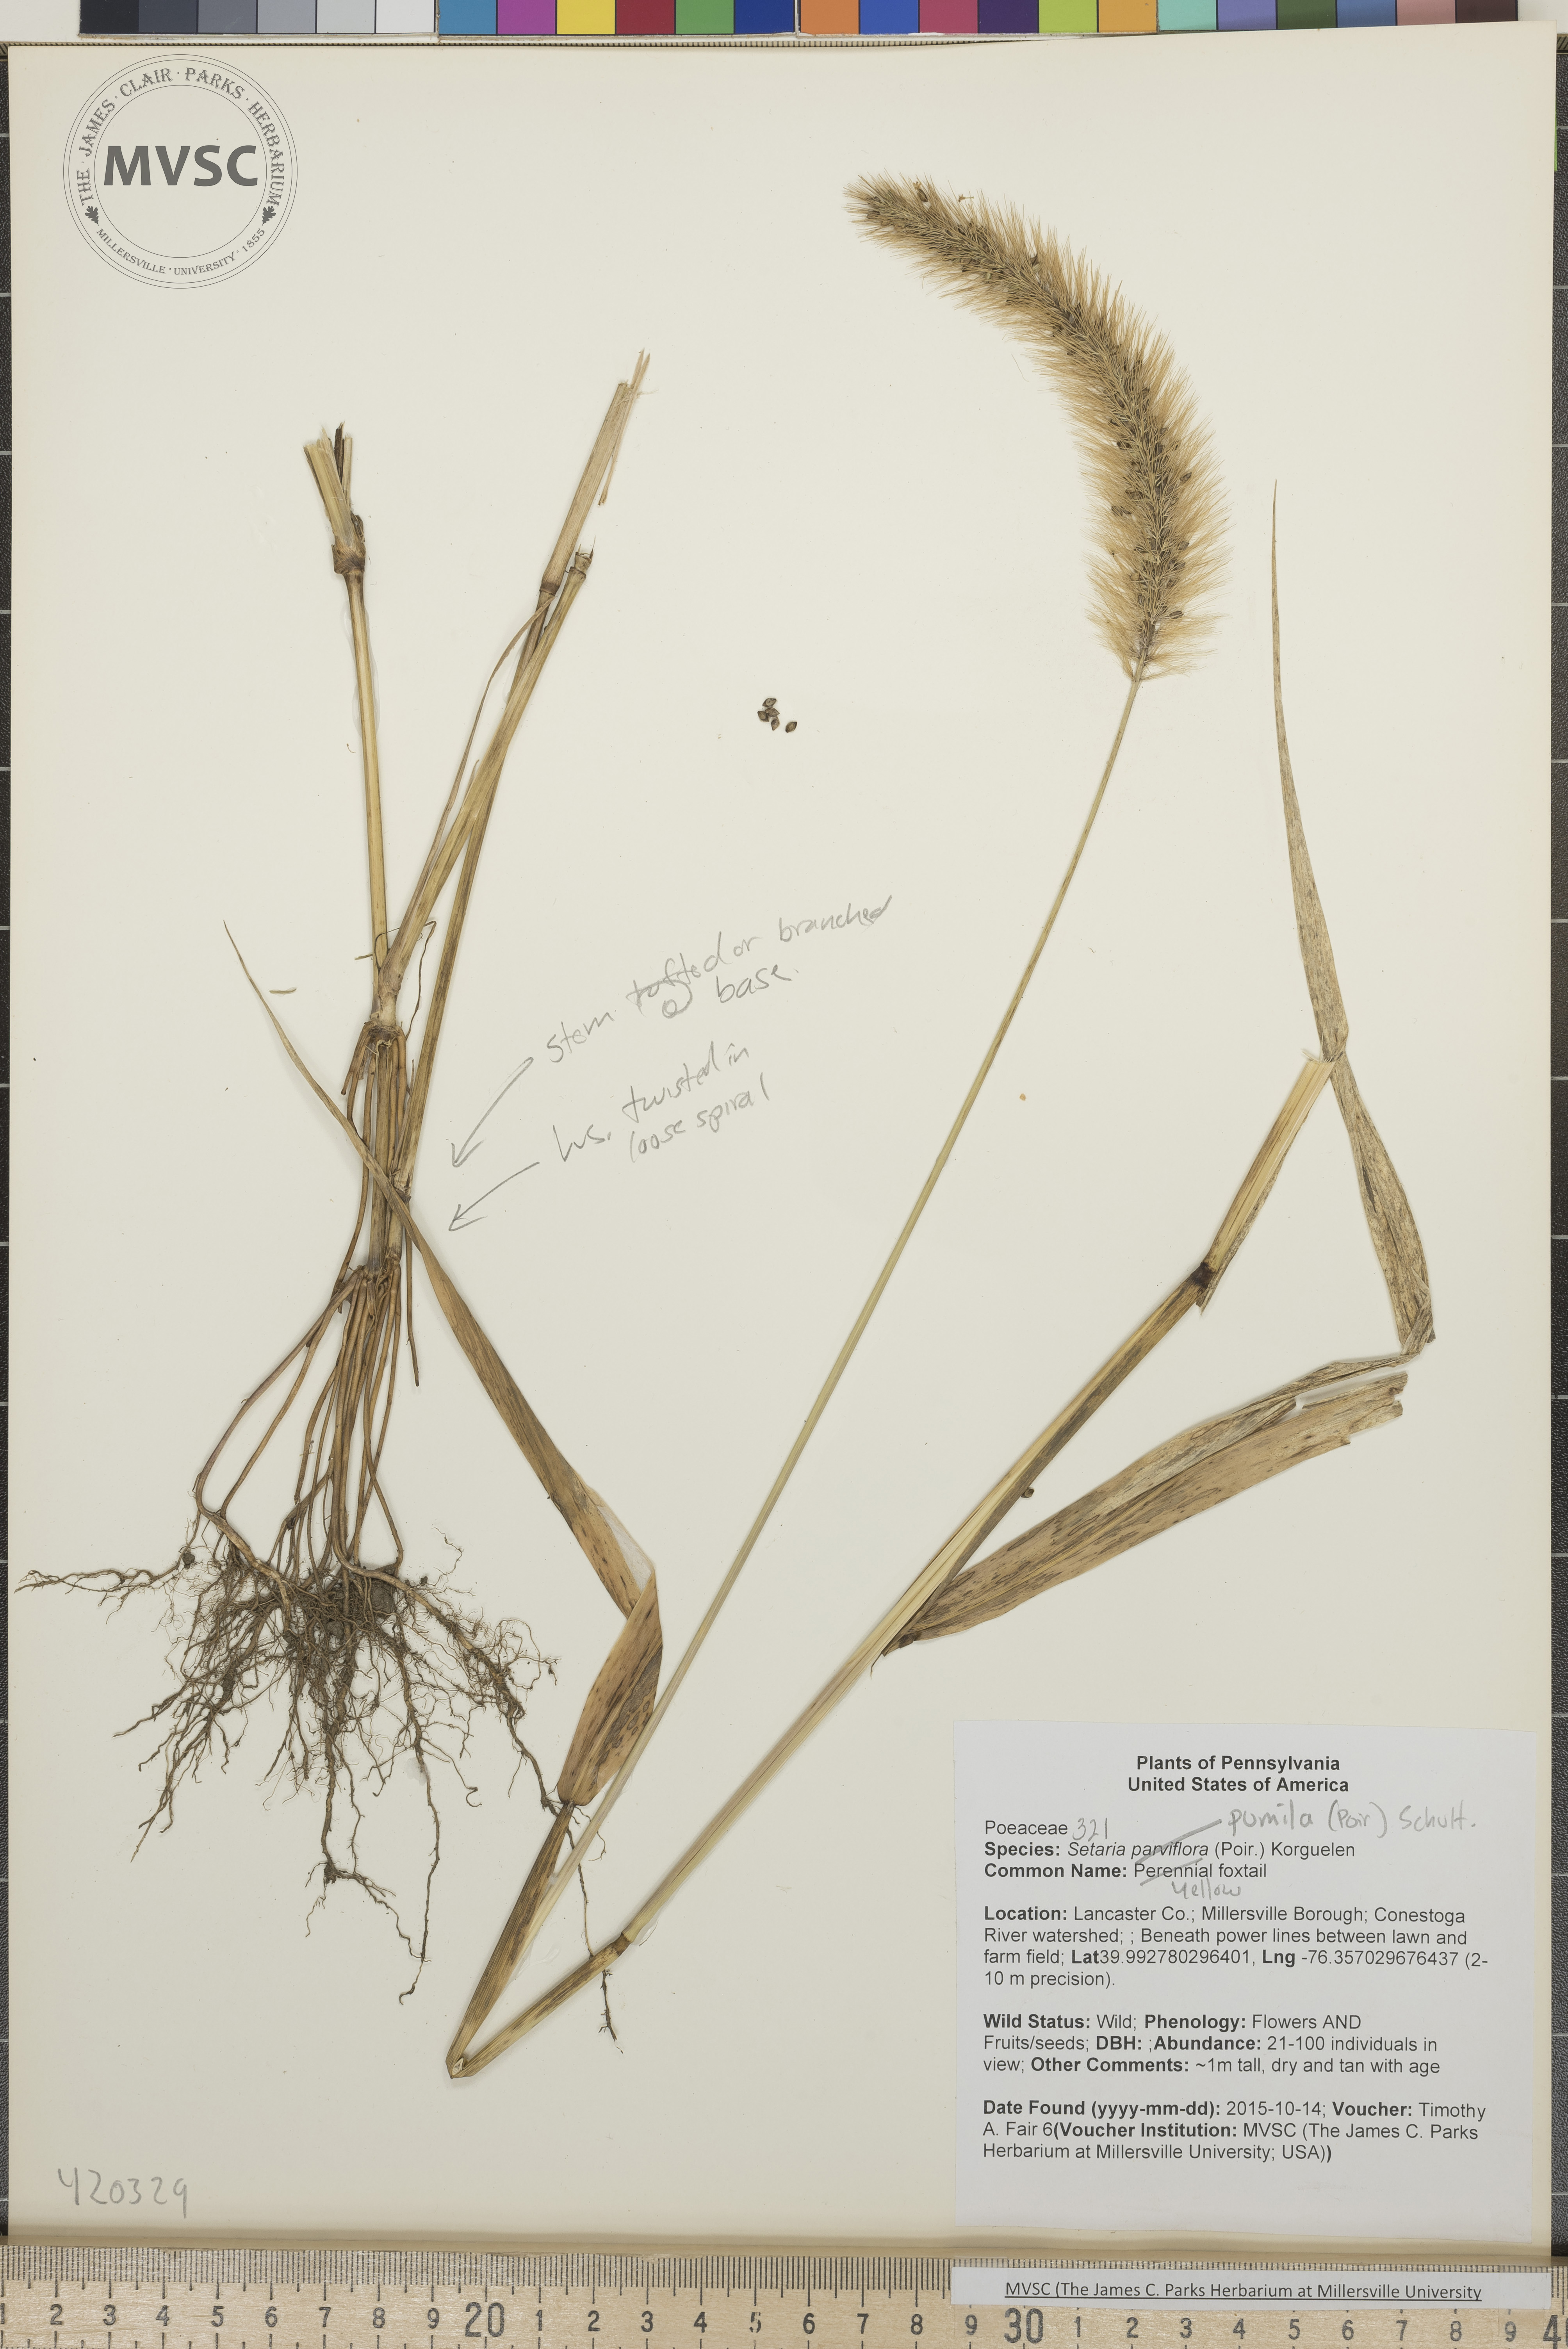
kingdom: Plantae
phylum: Tracheophyta
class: Liliopsida
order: Poales
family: Poaceae
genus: Setaria
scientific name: Setaria pumila
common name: Yellow foxtail
